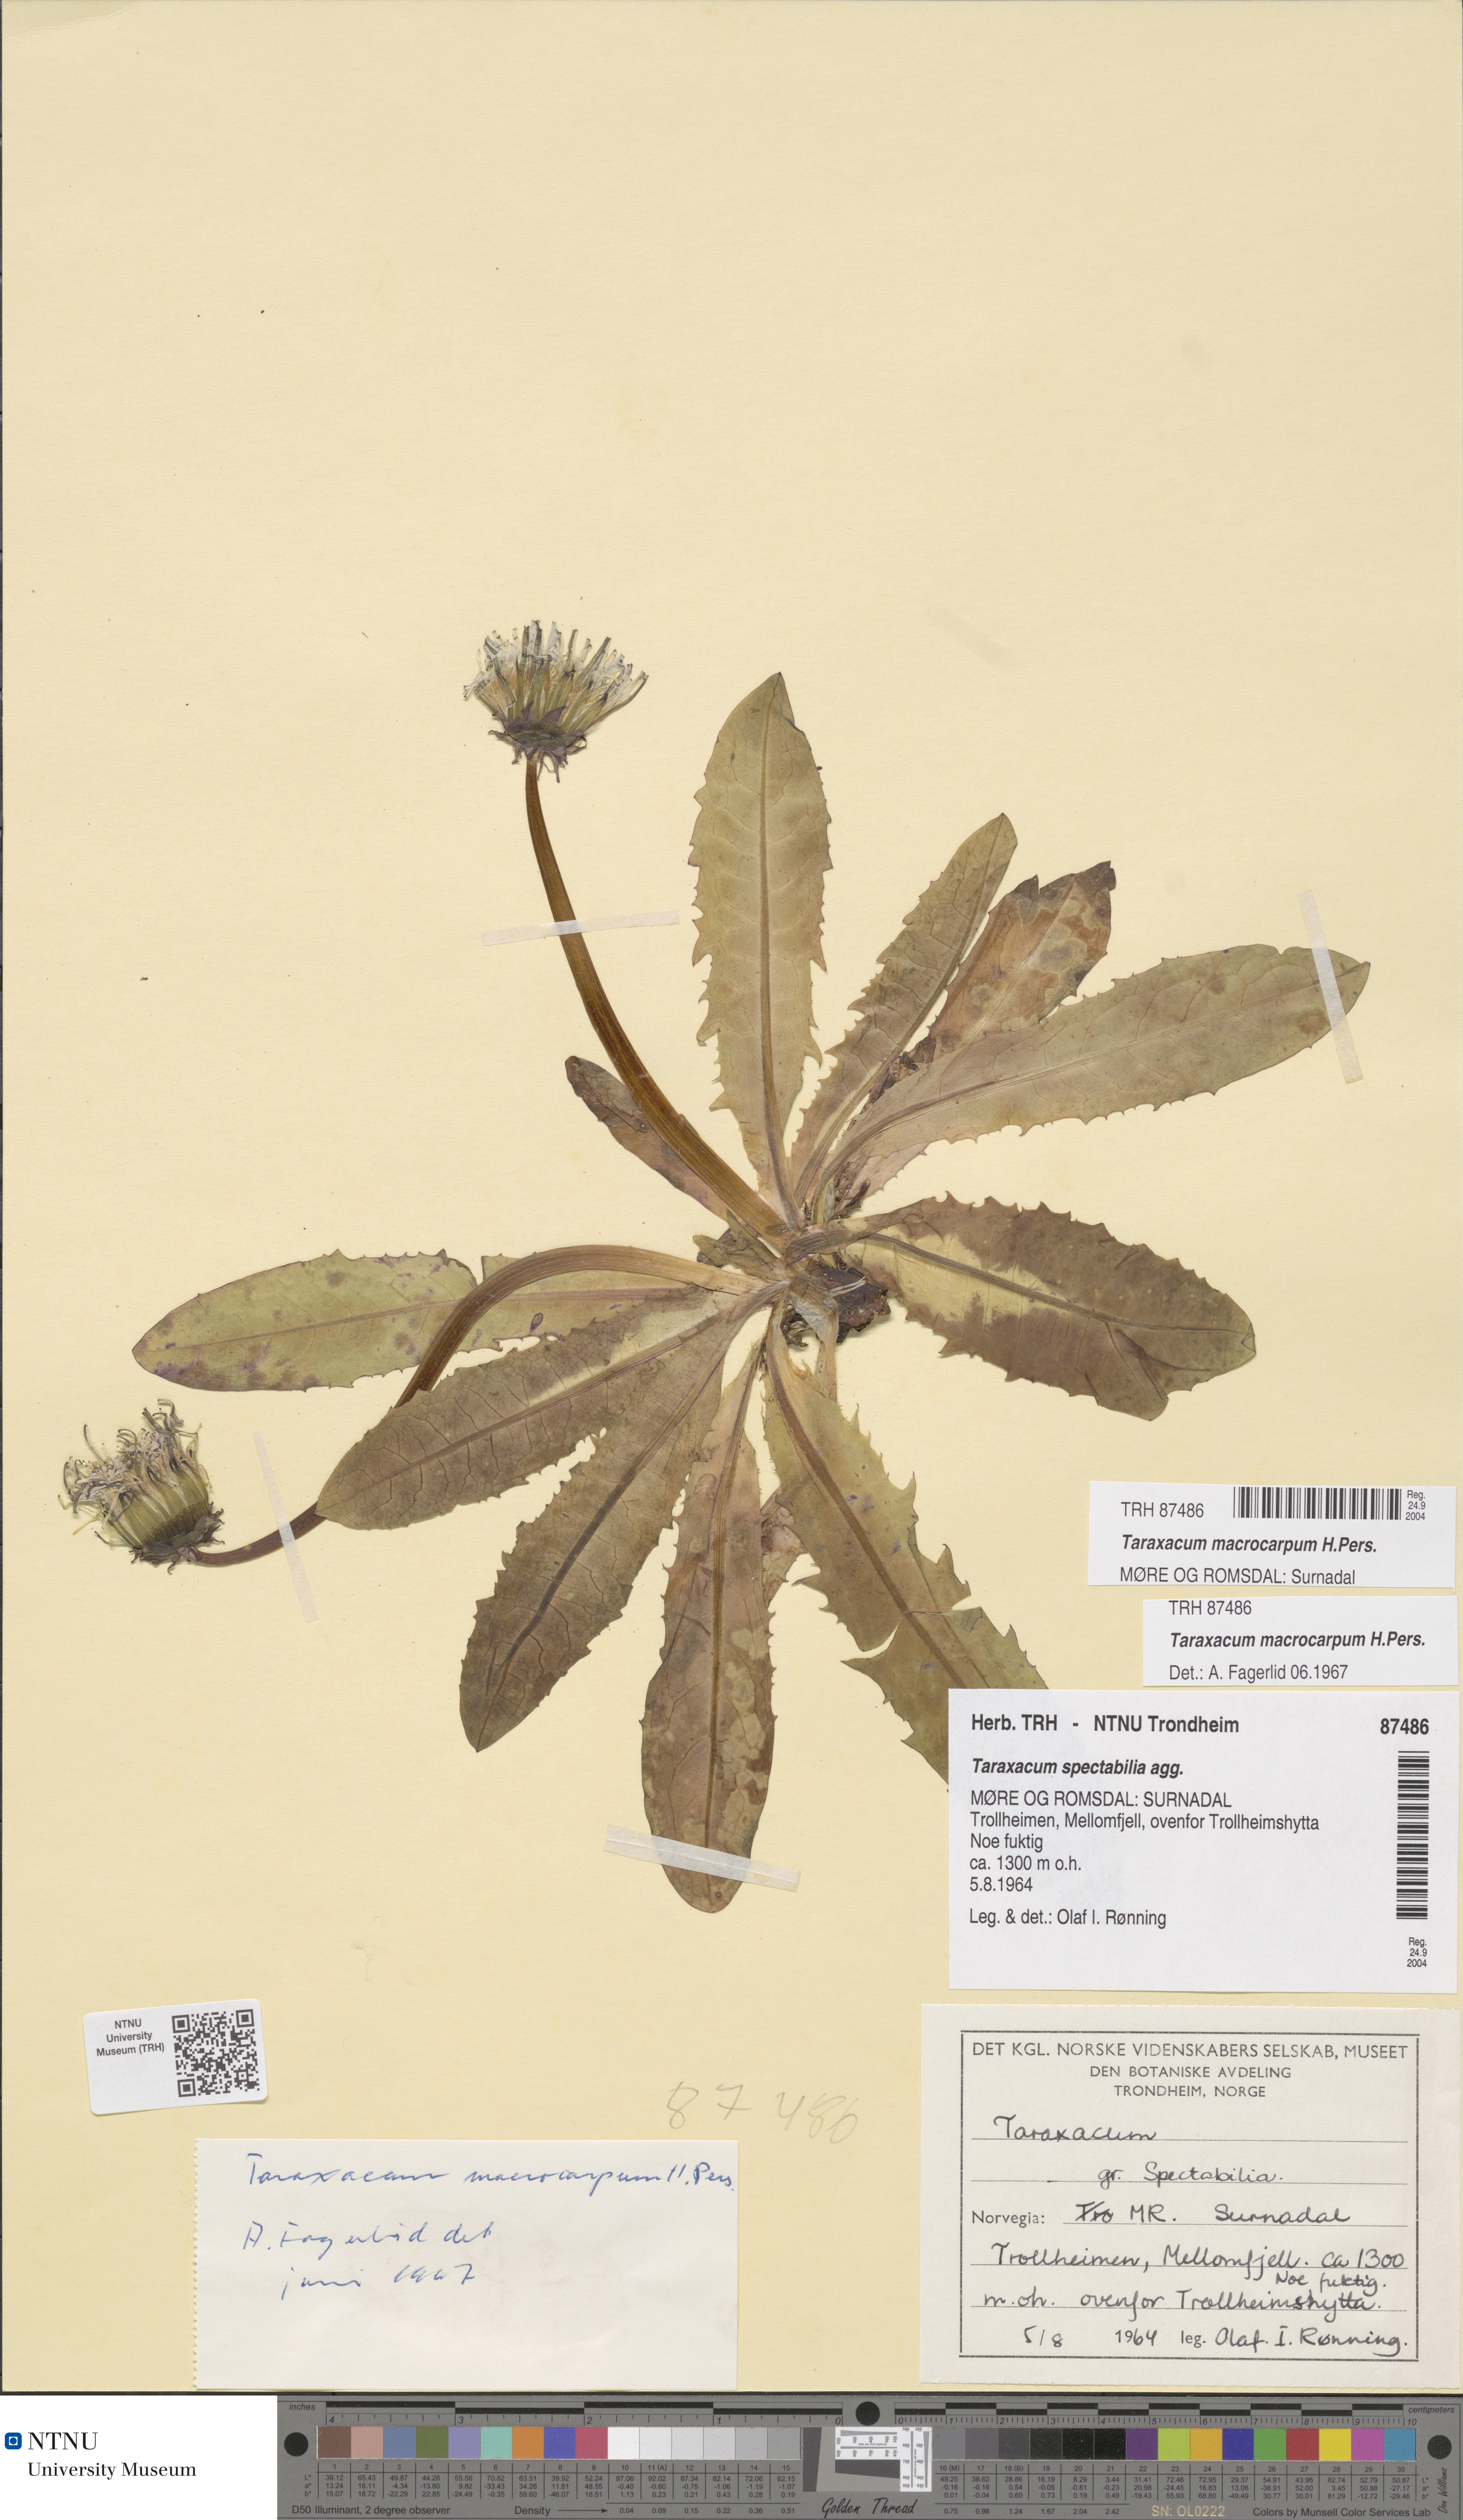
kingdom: Plantae
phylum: Tracheophyta
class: Magnoliopsida
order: Asterales
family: Asteraceae
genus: Taraxacum
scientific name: Taraxacum macrocarpum
